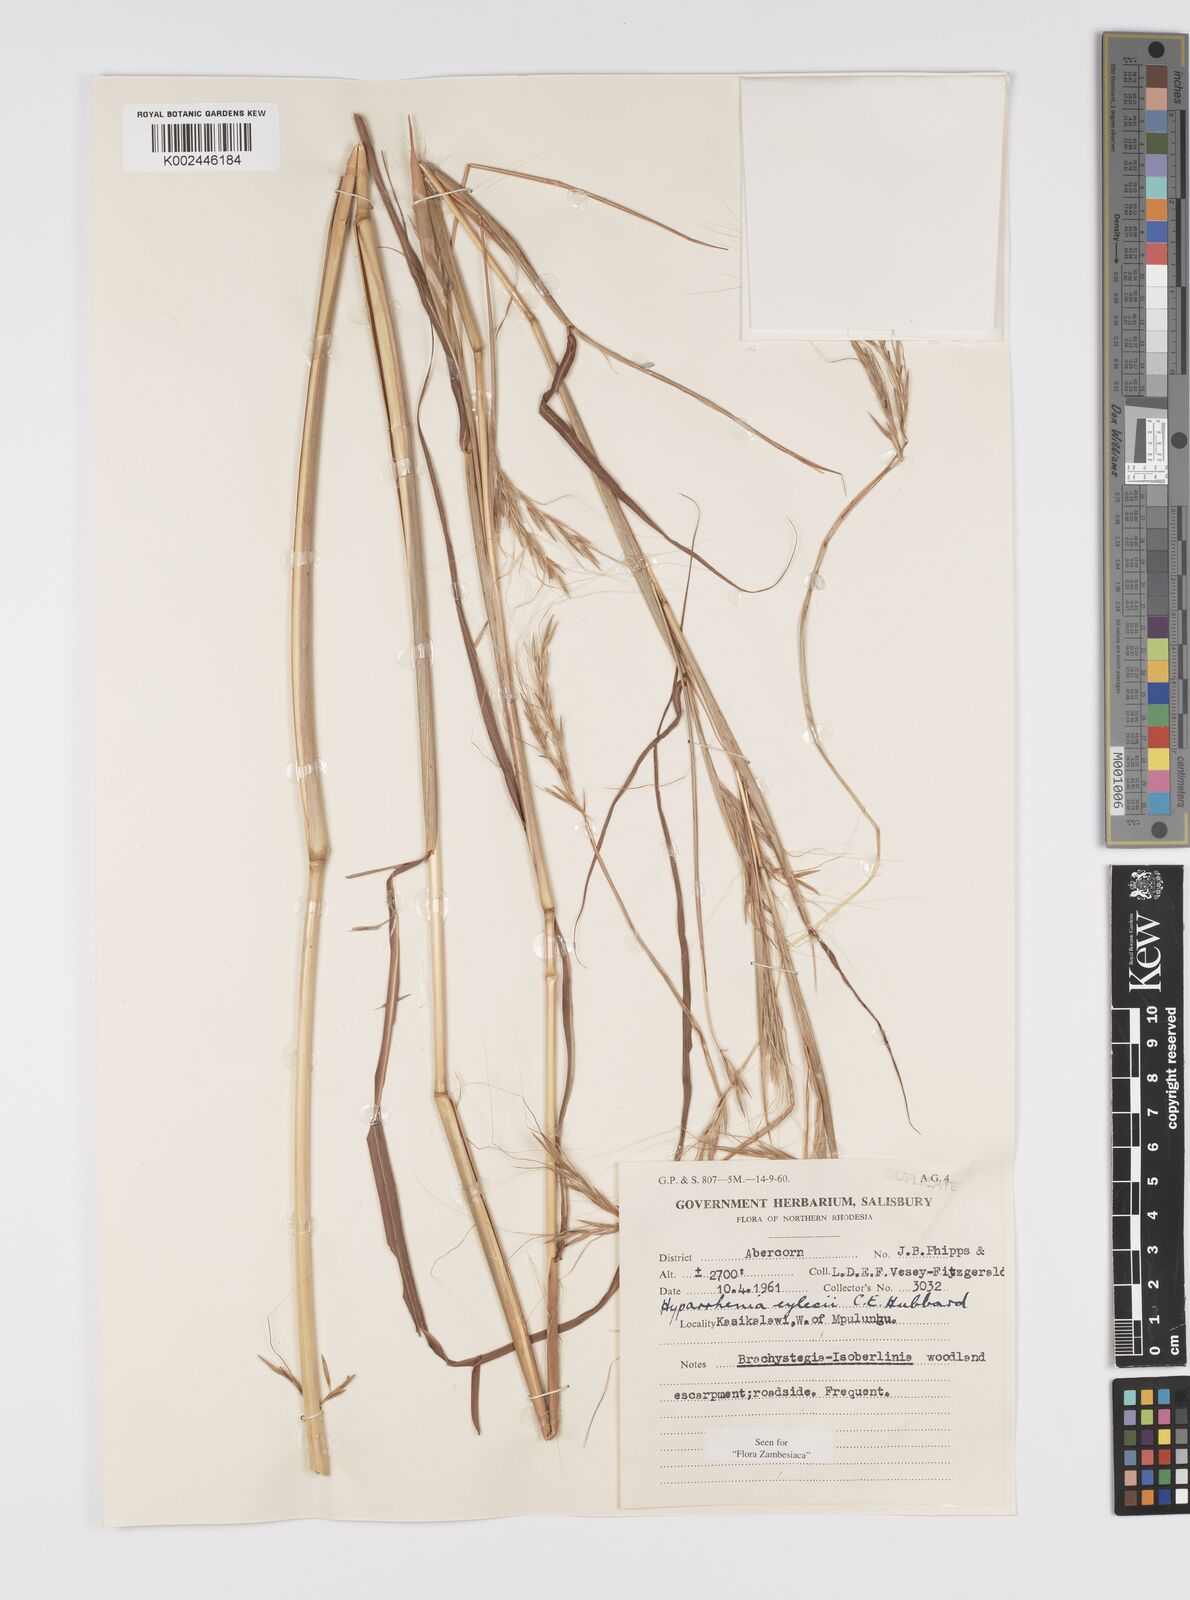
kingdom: Plantae
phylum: Tracheophyta
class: Liliopsida
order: Poales
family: Poaceae
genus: Elymandra
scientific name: Elymandra grallata
